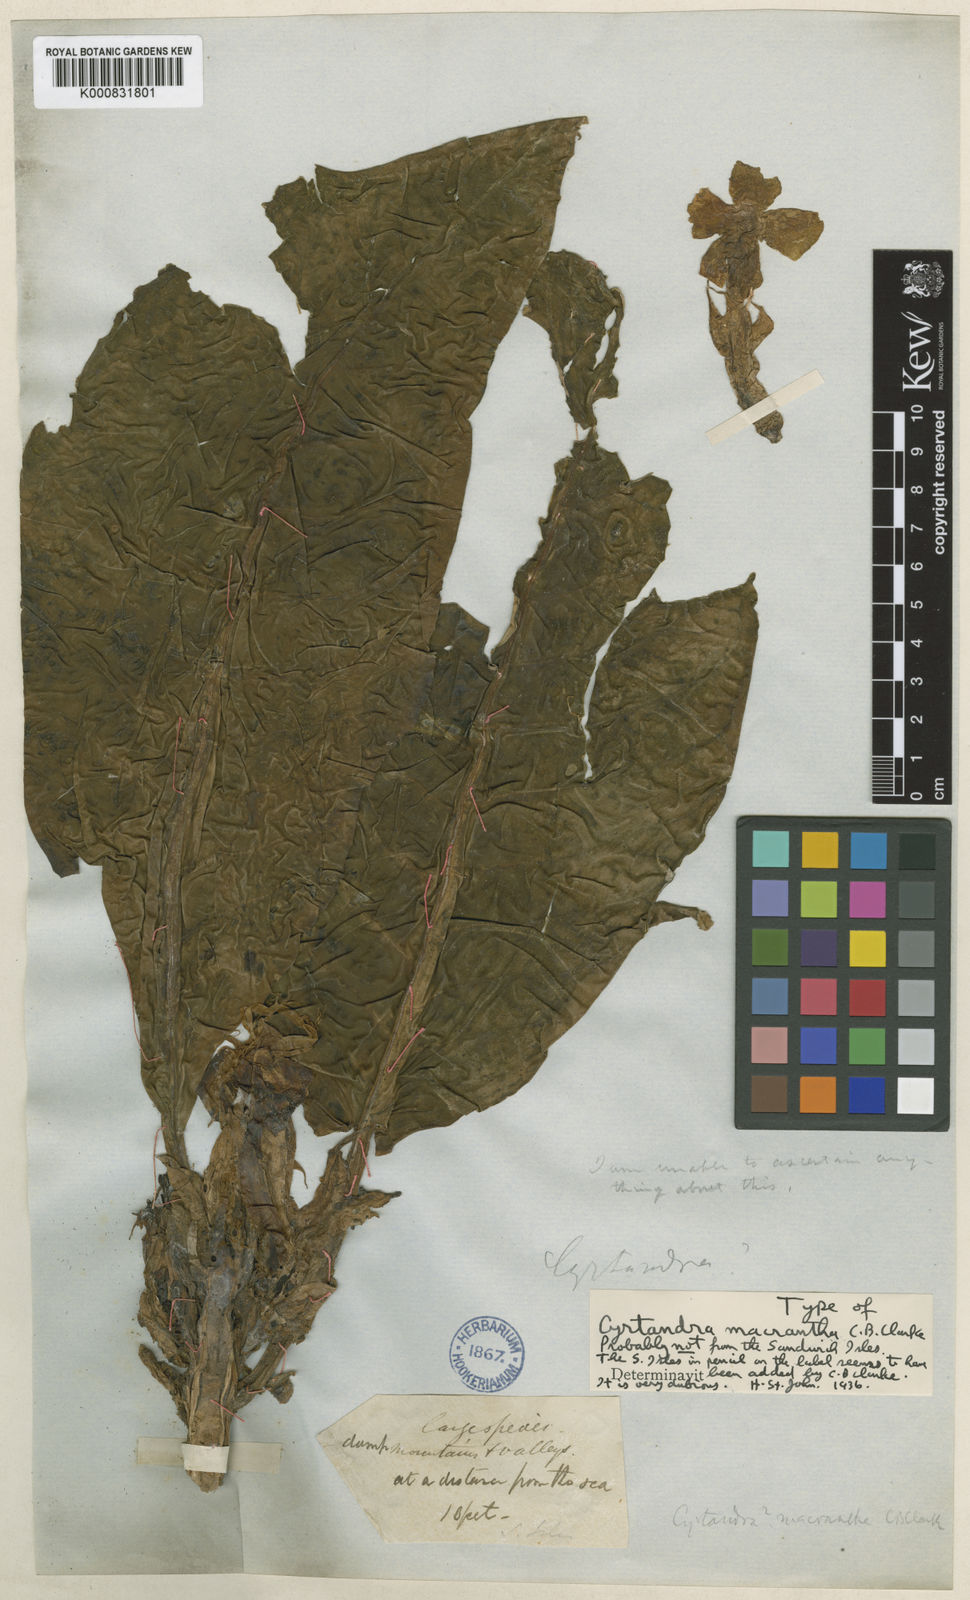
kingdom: Plantae
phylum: Tracheophyta
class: Magnoliopsida
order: Lamiales
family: Gesneriaceae
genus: Cyrtandra
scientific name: Cyrtandra macrantha
